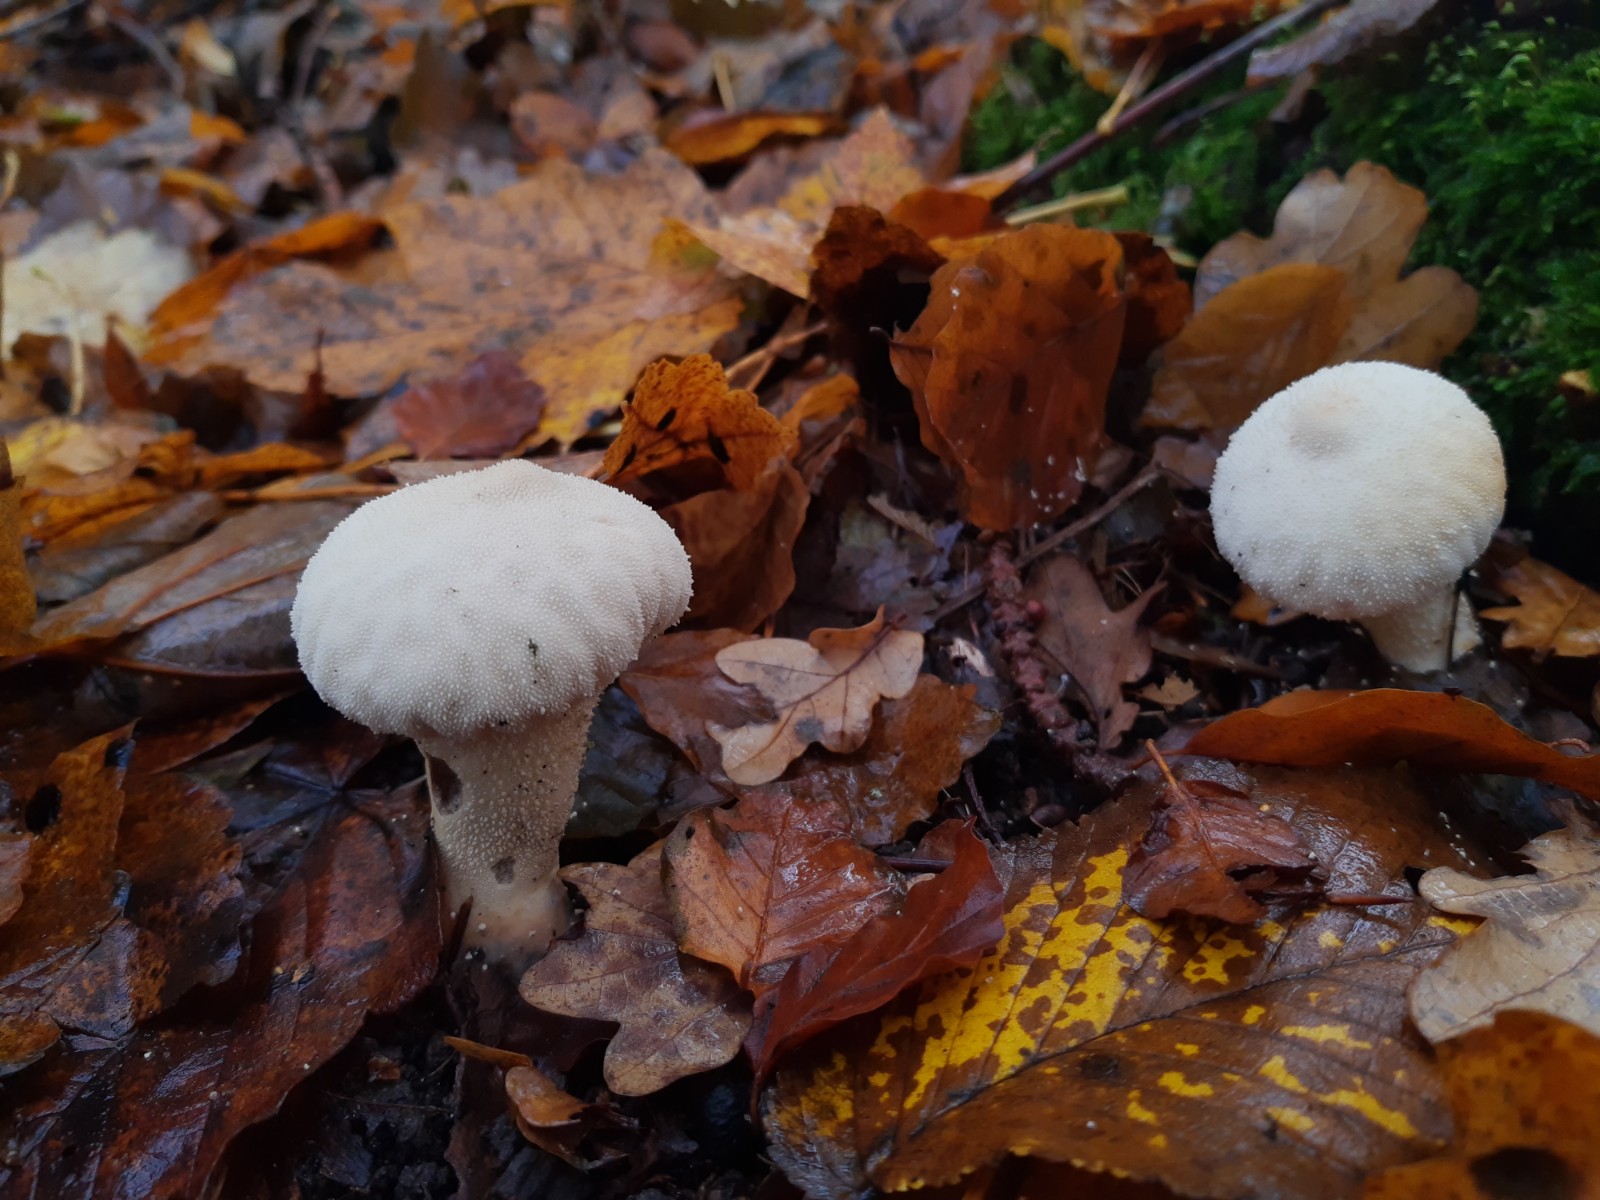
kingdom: Fungi
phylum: Basidiomycota
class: Agaricomycetes
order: Agaricales
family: Lycoperdaceae
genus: Lycoperdon
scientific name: Lycoperdon perlatum
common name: krystal-støvbold
